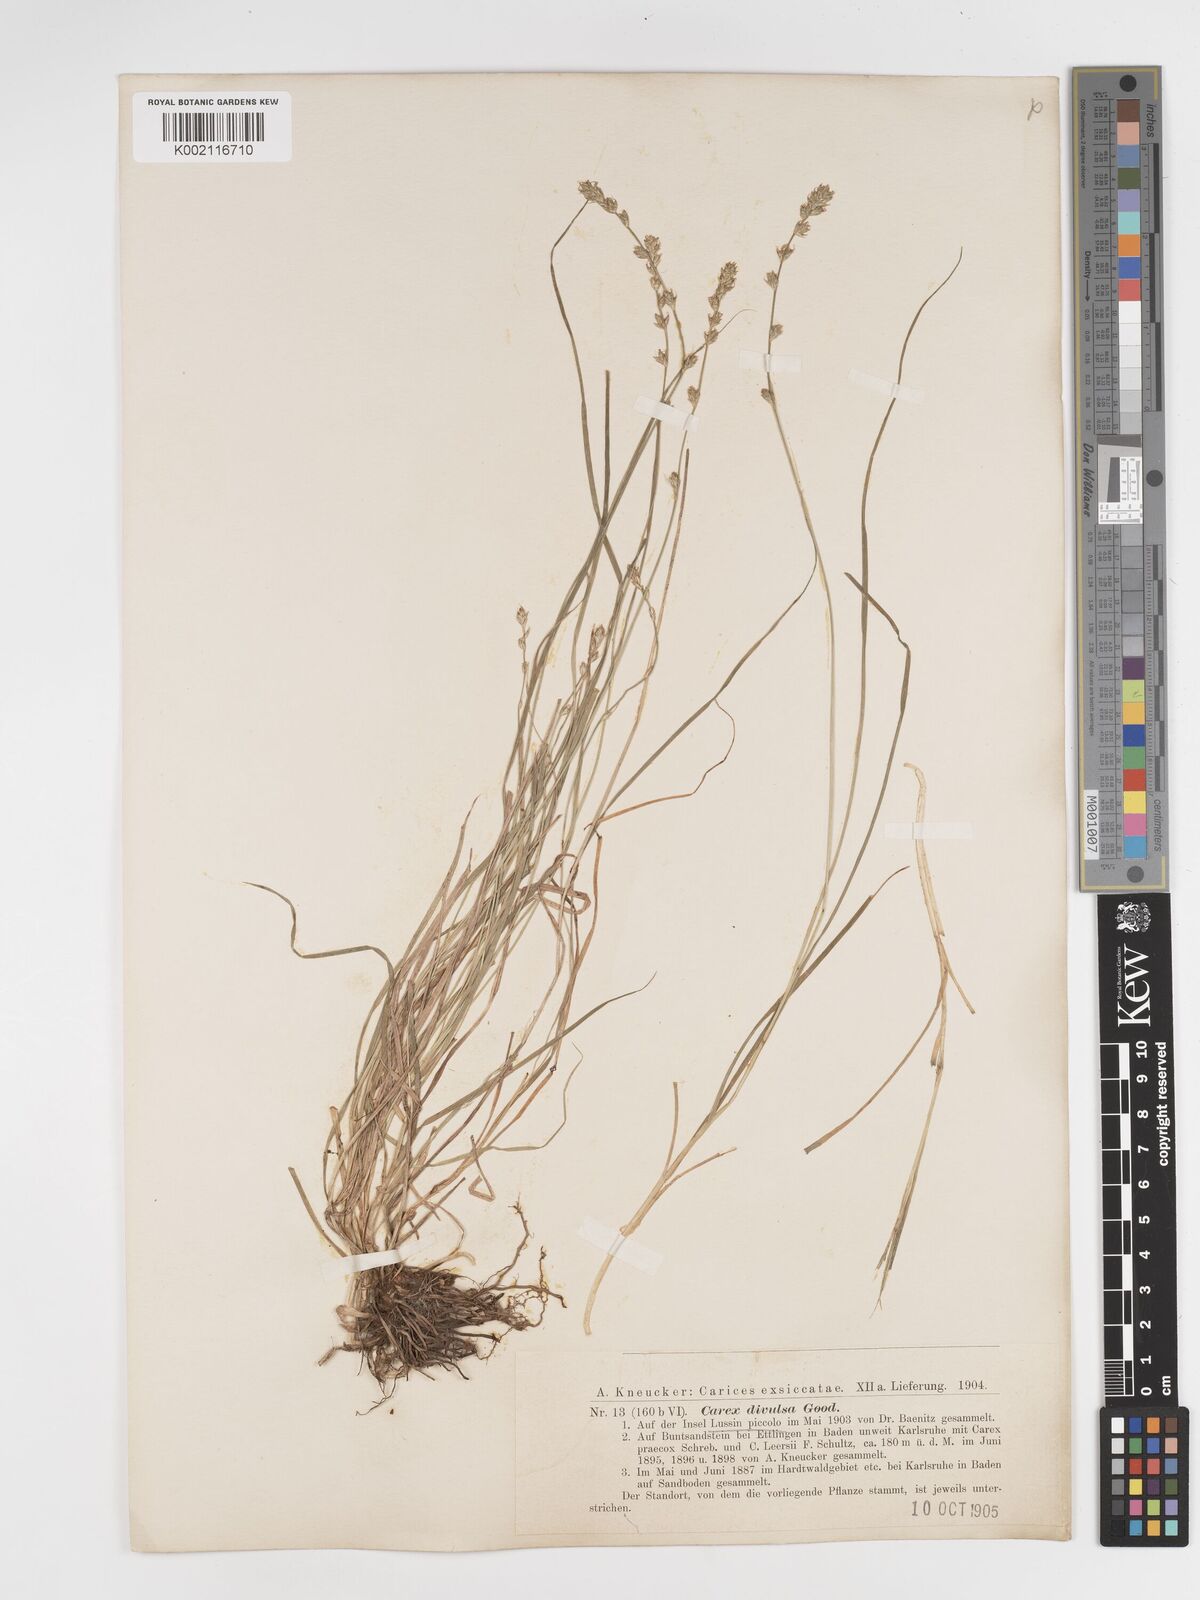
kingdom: Plantae
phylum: Tracheophyta
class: Liliopsida
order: Poales
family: Cyperaceae
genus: Carex
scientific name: Carex divulsa
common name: Grassland sedge
